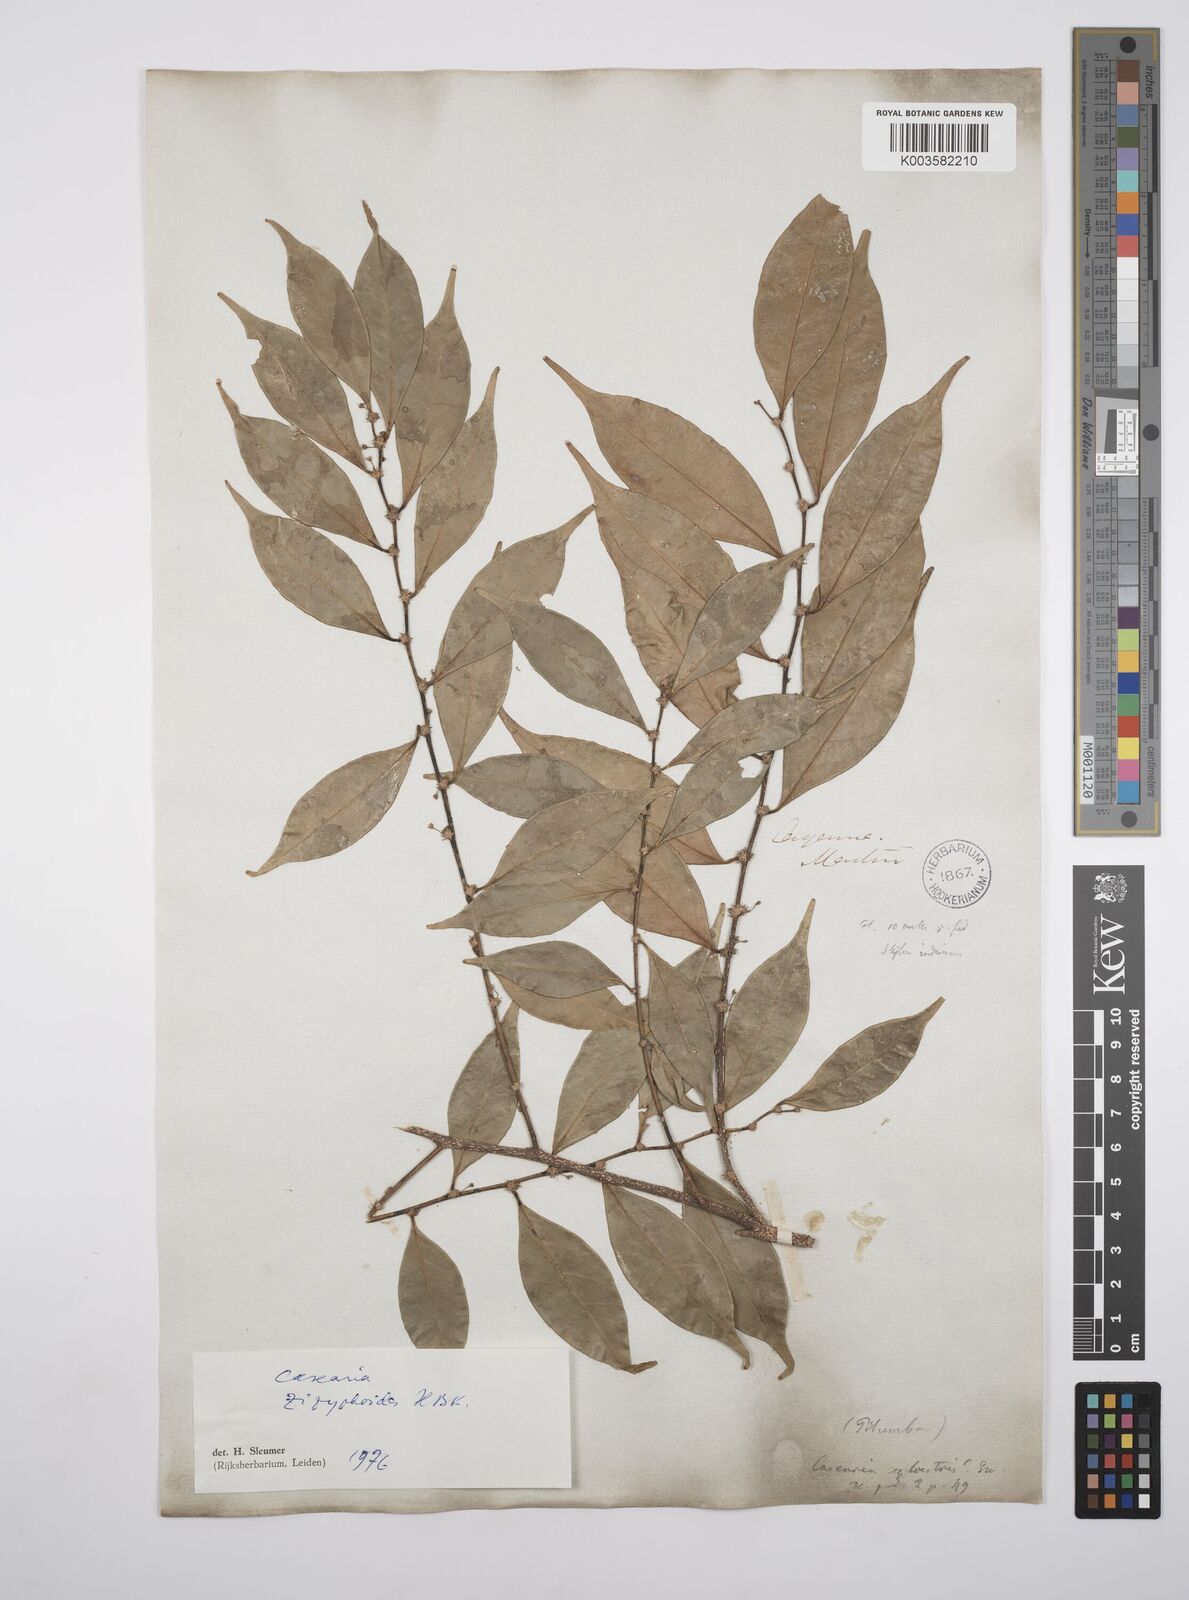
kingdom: Plantae
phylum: Tracheophyta
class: Magnoliopsida
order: Malpighiales
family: Salicaceae
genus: Casearia
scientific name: Casearia zizyphoides
